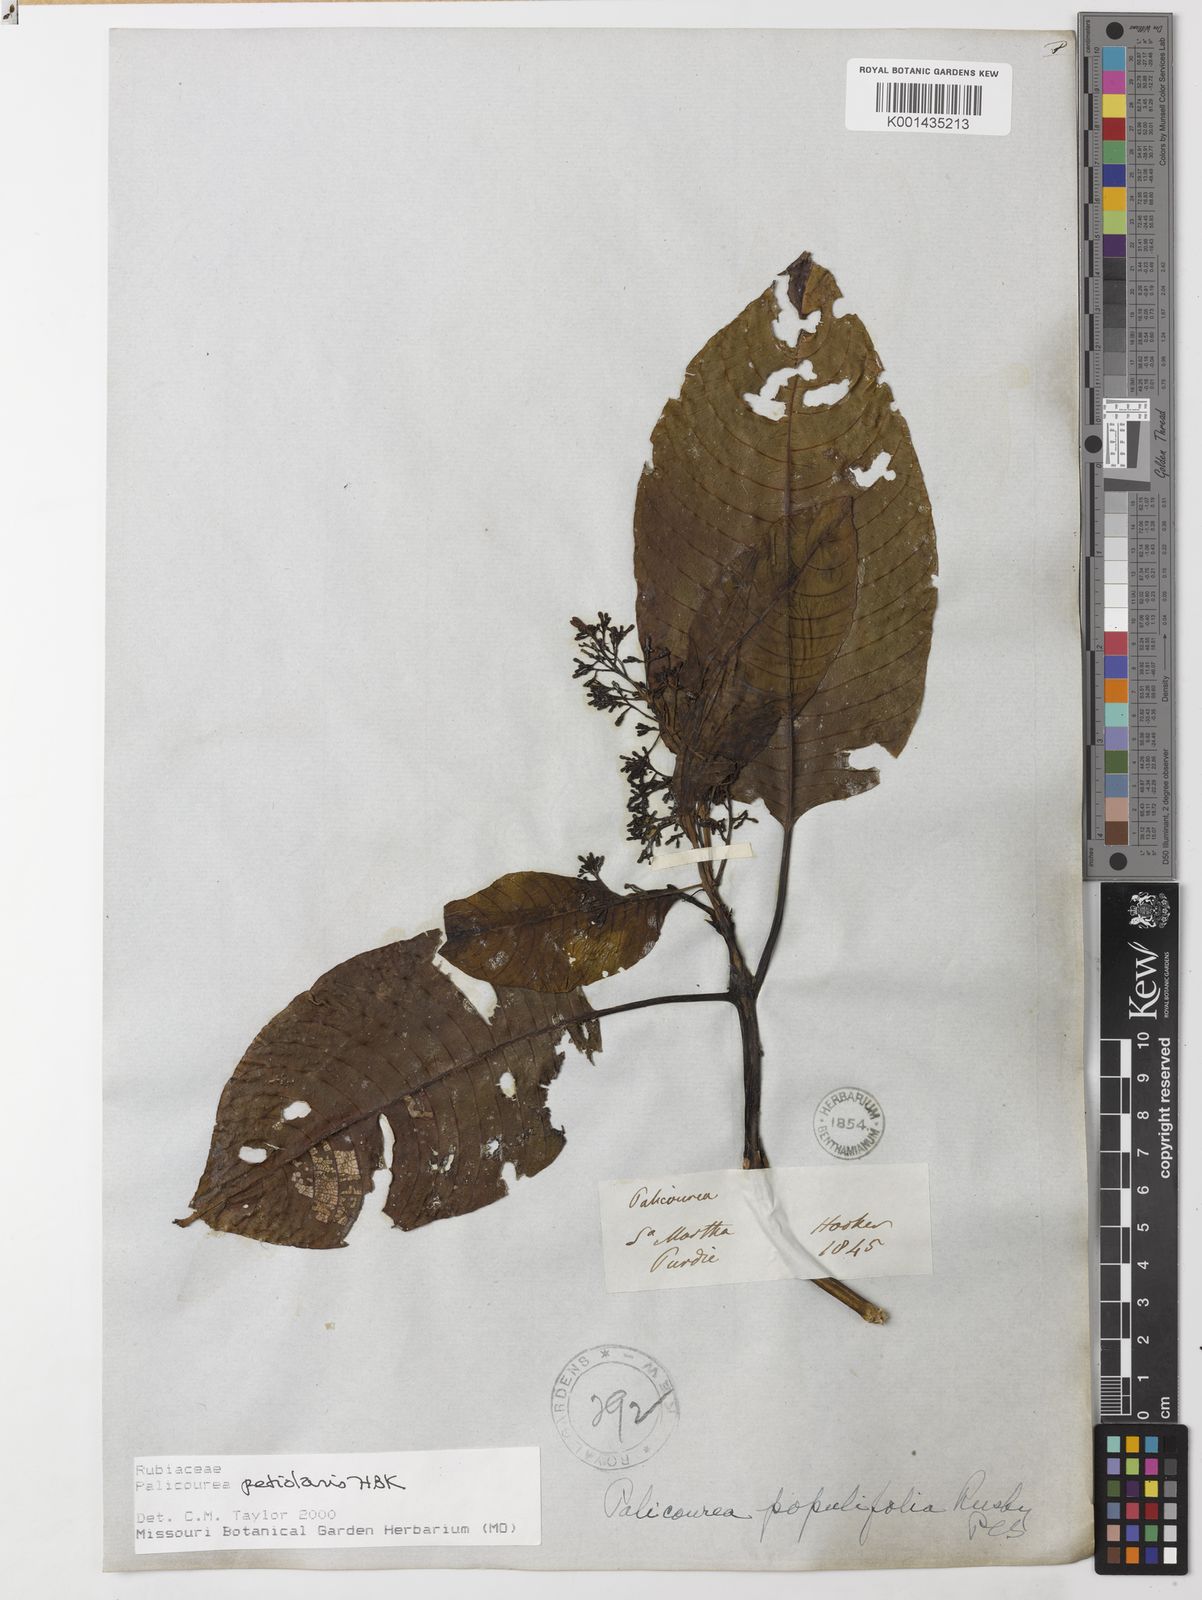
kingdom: Plantae
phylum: Tracheophyta
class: Magnoliopsida
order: Gentianales
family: Rubiaceae
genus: Palicourea
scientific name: Palicourea petiolaris
